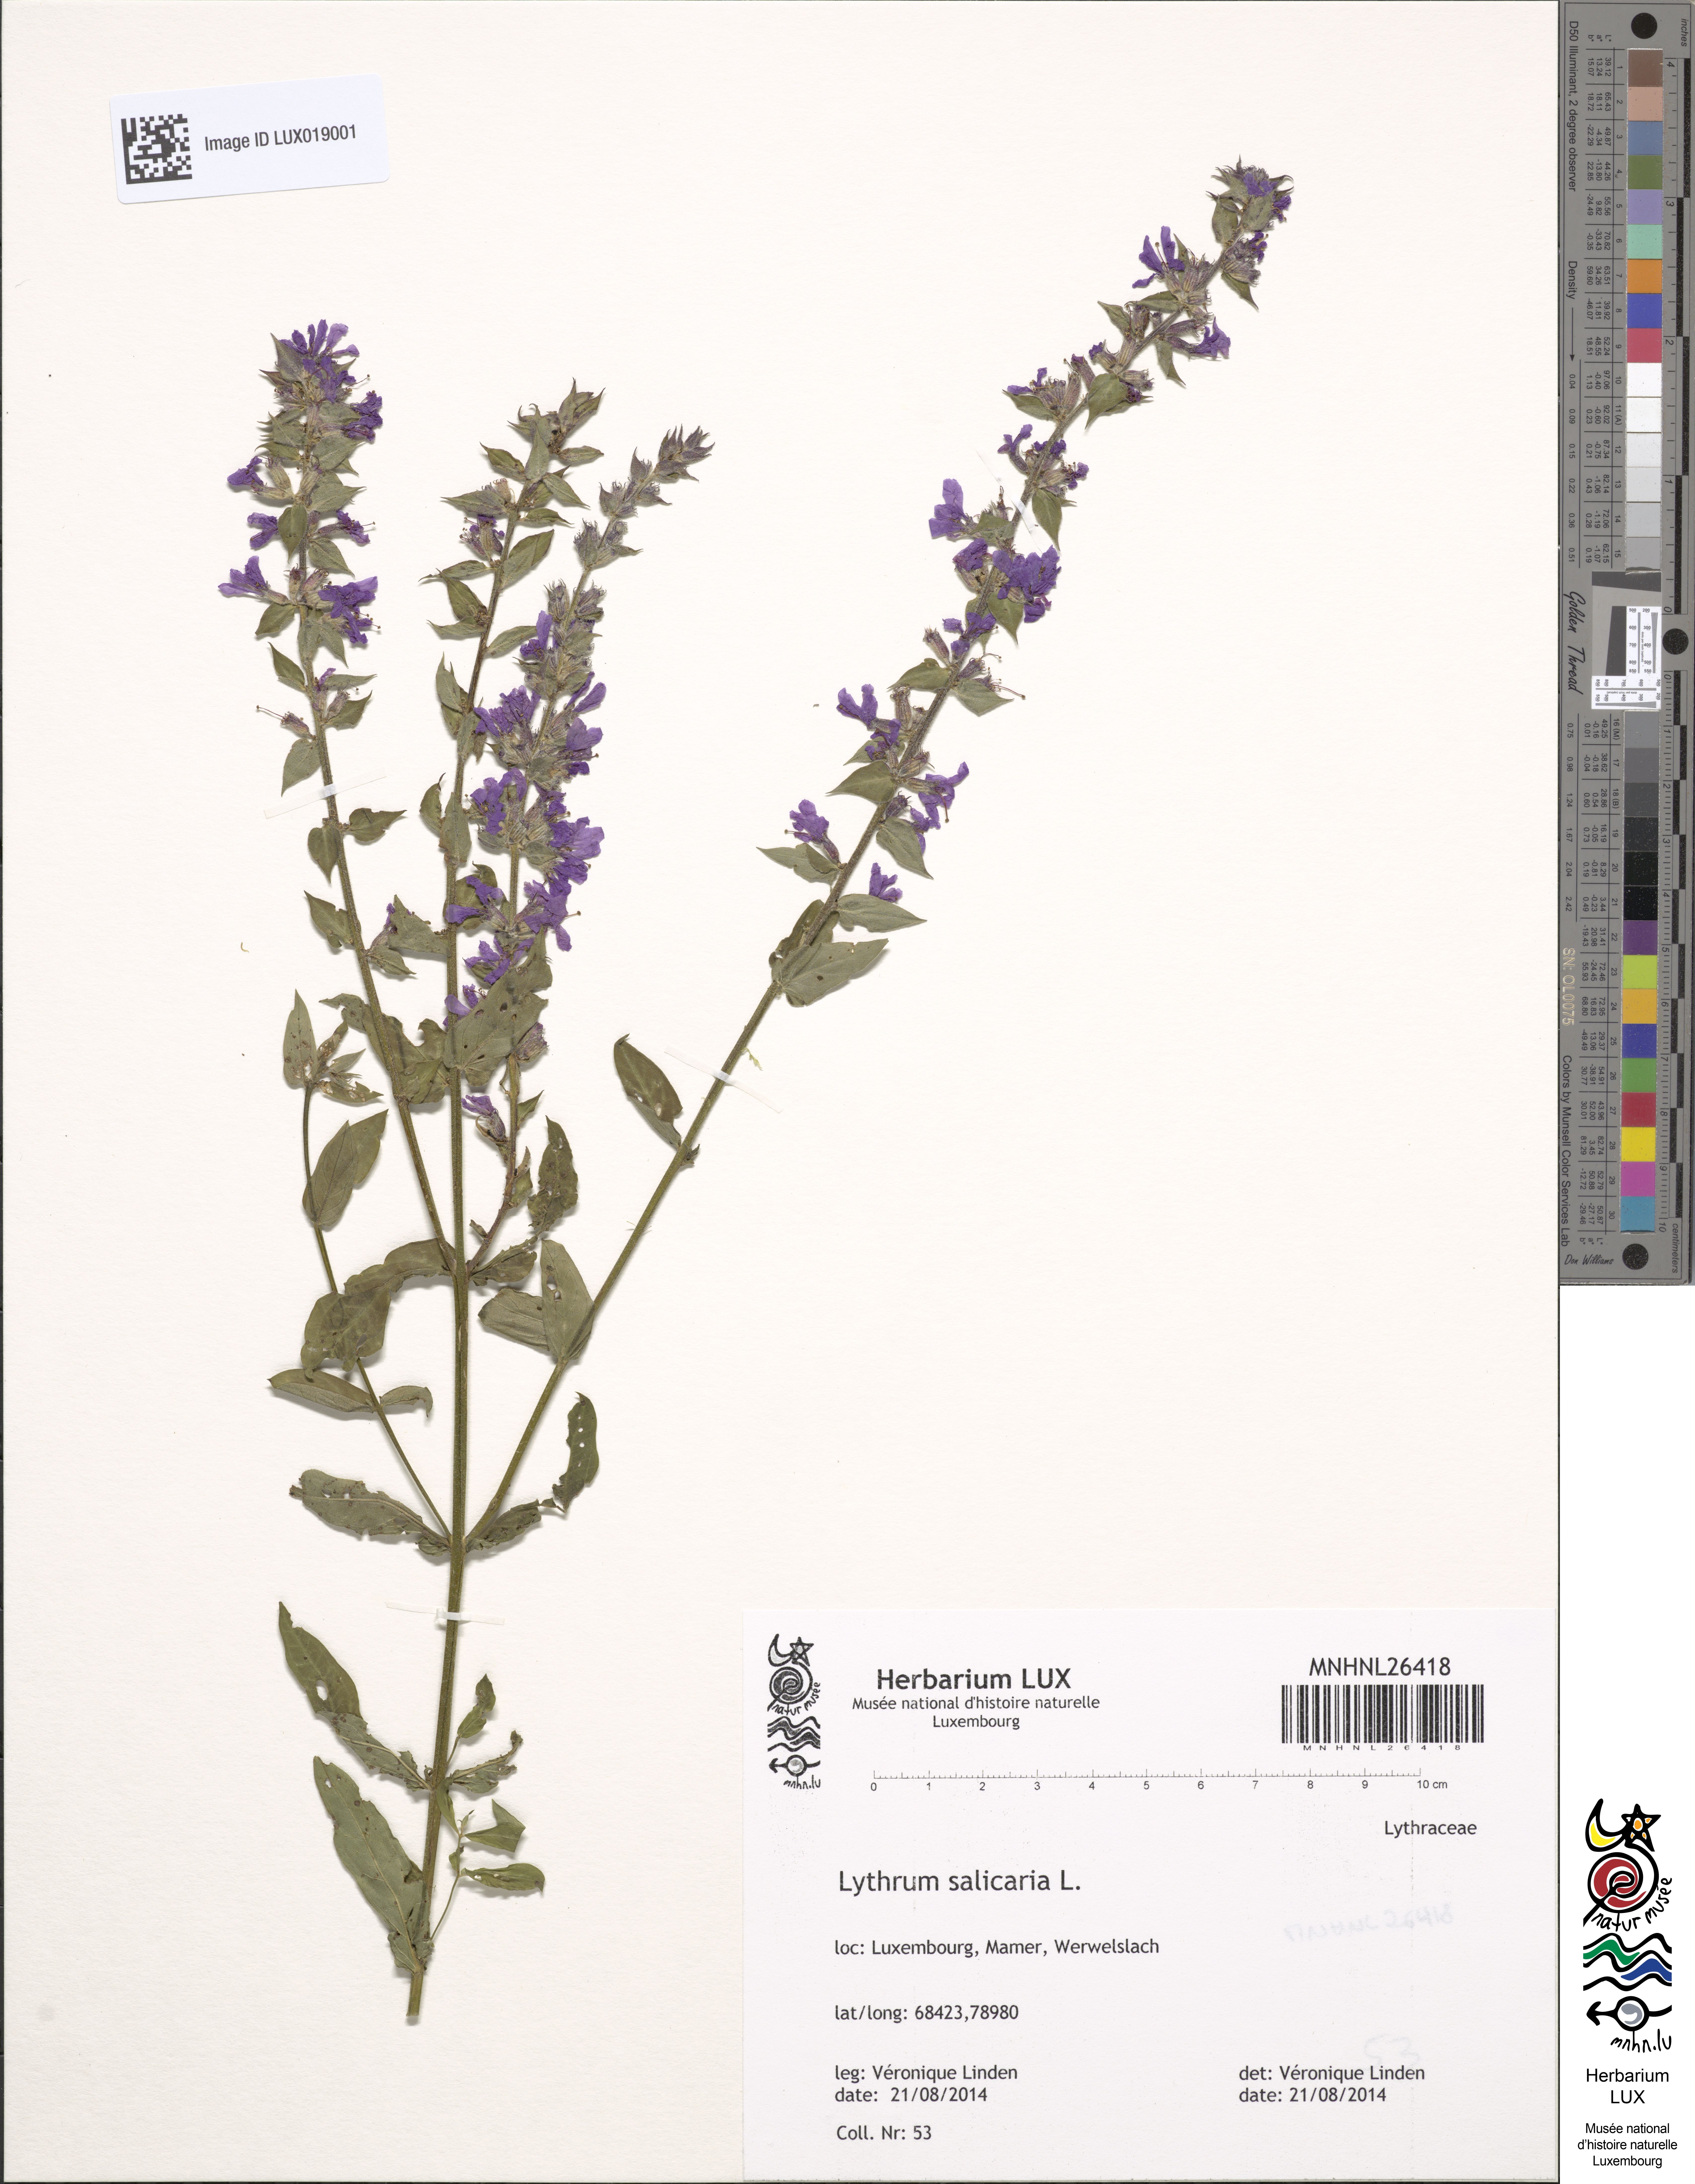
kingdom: Plantae
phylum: Tracheophyta
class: Magnoliopsida
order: Myrtales
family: Lythraceae
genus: Lythrum
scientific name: Lythrum salicaria
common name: Purple loosestrife
